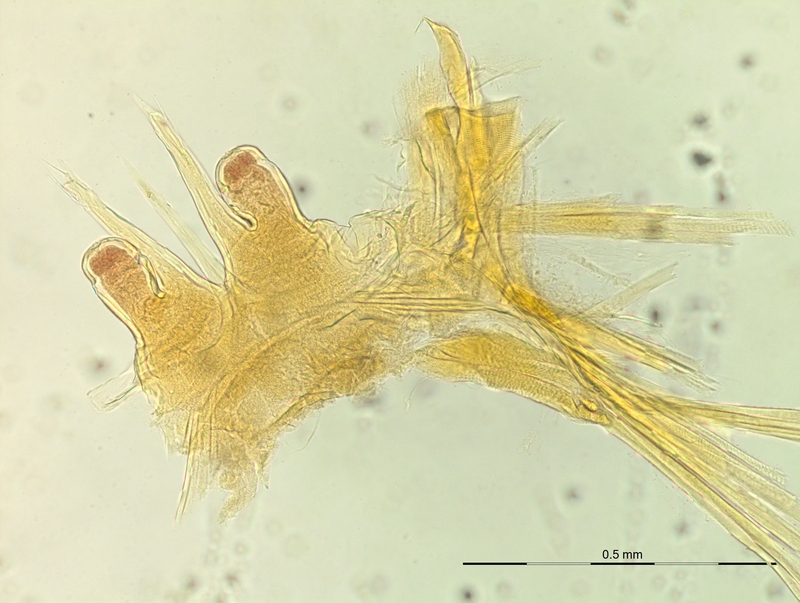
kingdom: Animalia
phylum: Arthropoda
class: Diplopoda
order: Chordeumatida
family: Craspedosomatidae
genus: Macheiriophoron
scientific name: Macheiriophoron alemannicum
